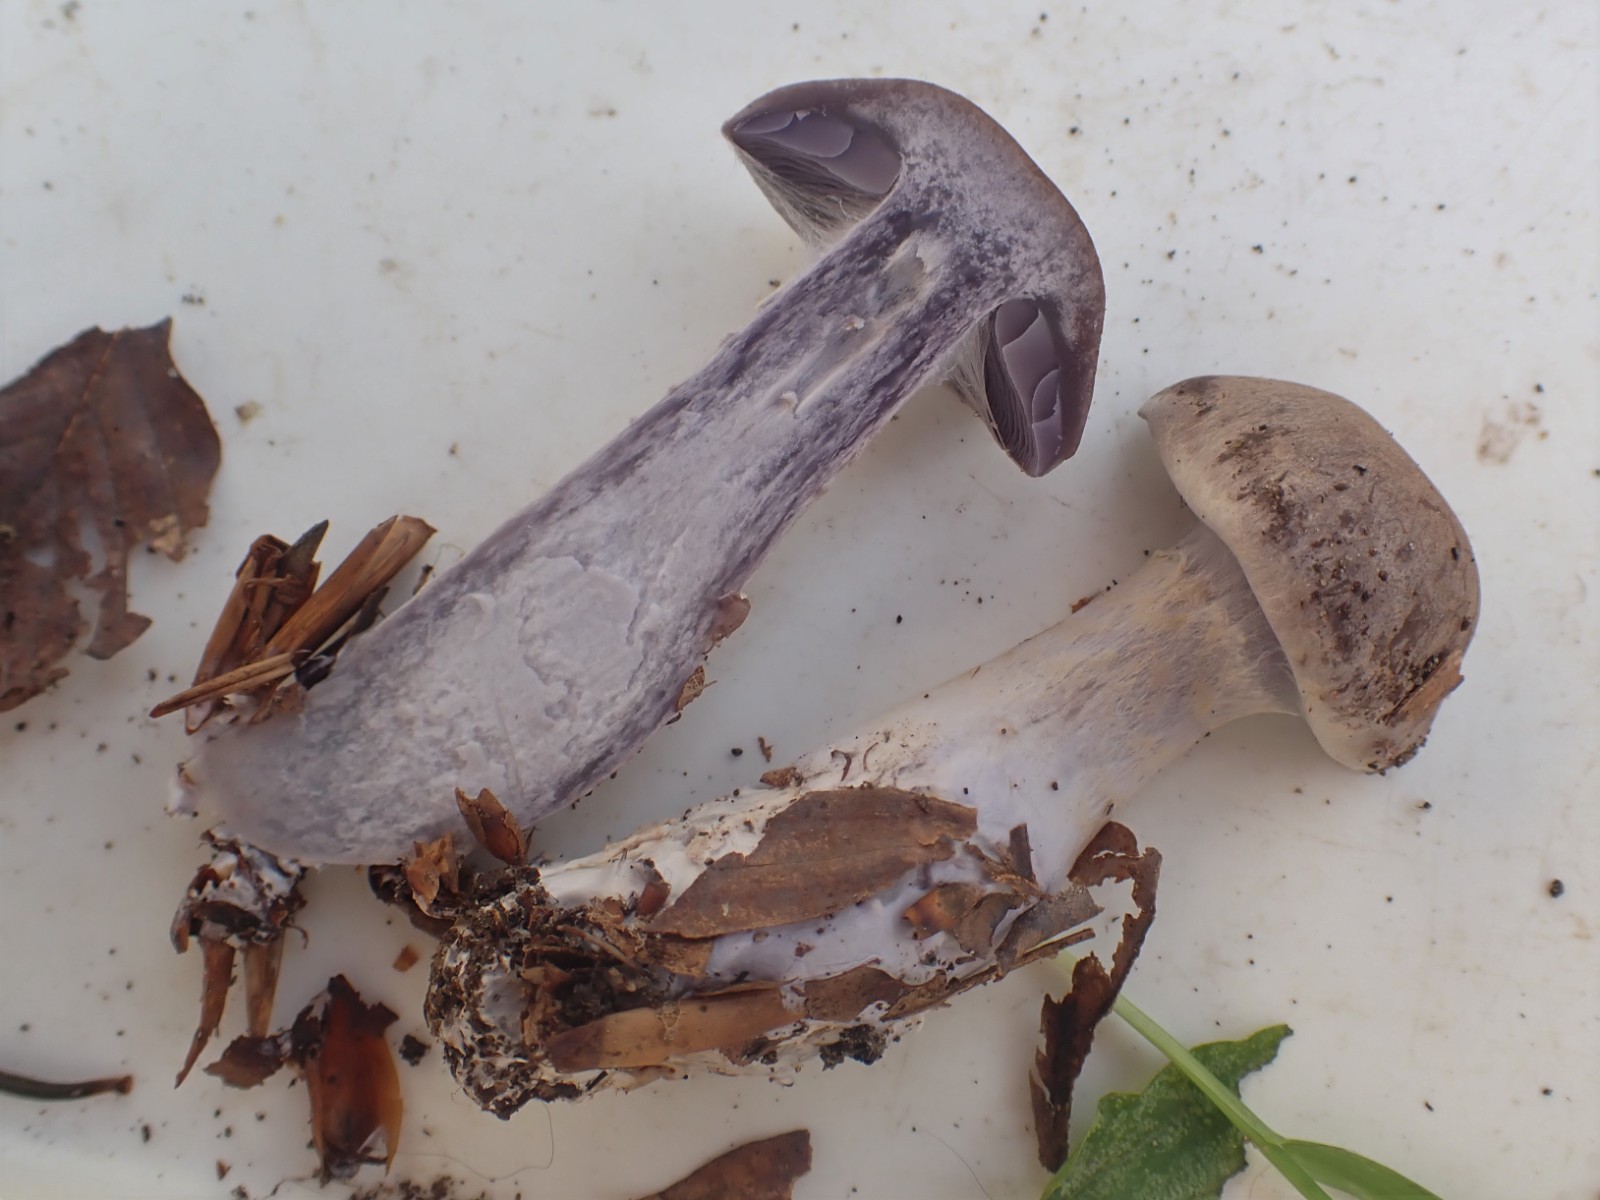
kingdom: Fungi
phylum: Basidiomycota
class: Agaricomycetes
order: Agaricales
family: Cortinariaceae
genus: Cortinarius
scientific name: Cortinarius
